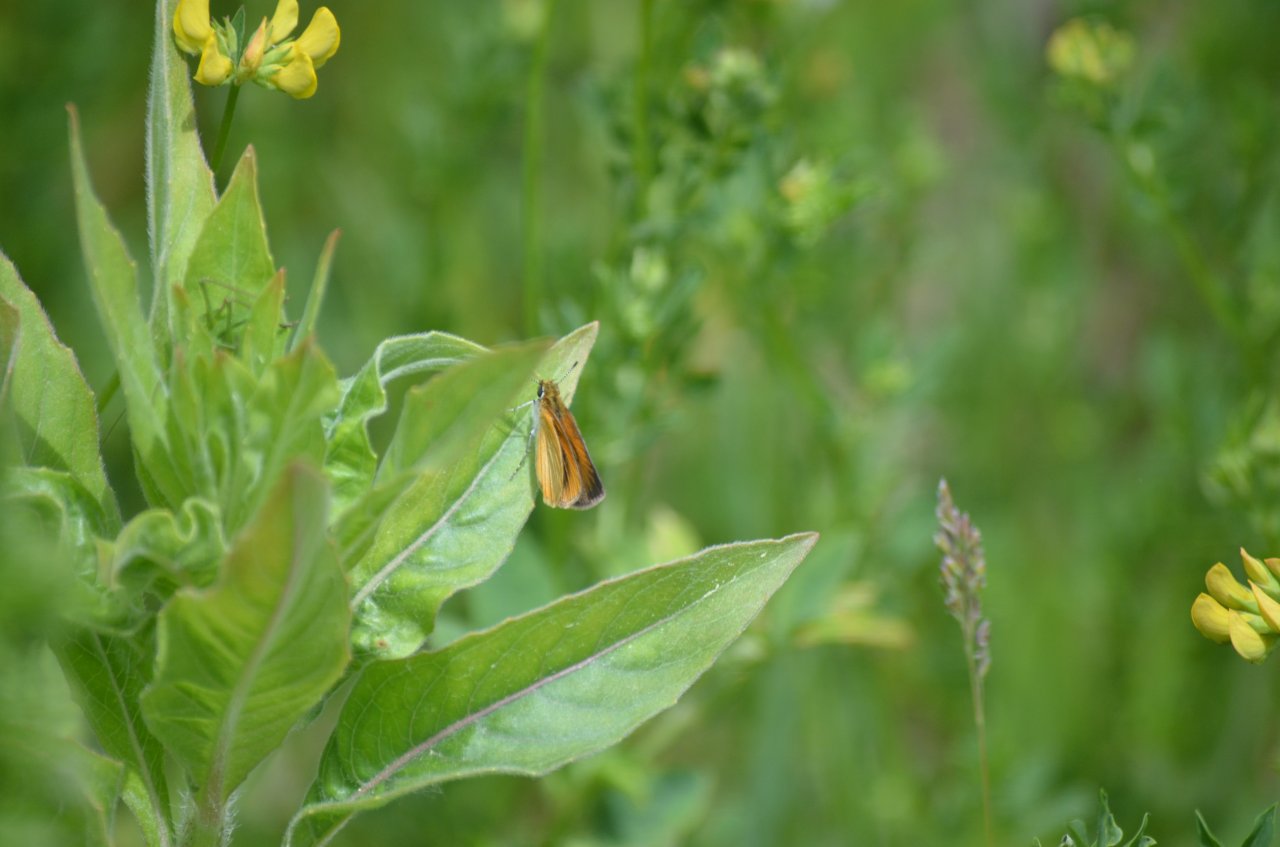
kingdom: Animalia
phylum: Arthropoda
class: Insecta
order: Lepidoptera
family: Hesperiidae
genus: Ancyloxypha
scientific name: Ancyloxypha numitor
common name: Least Skipper
